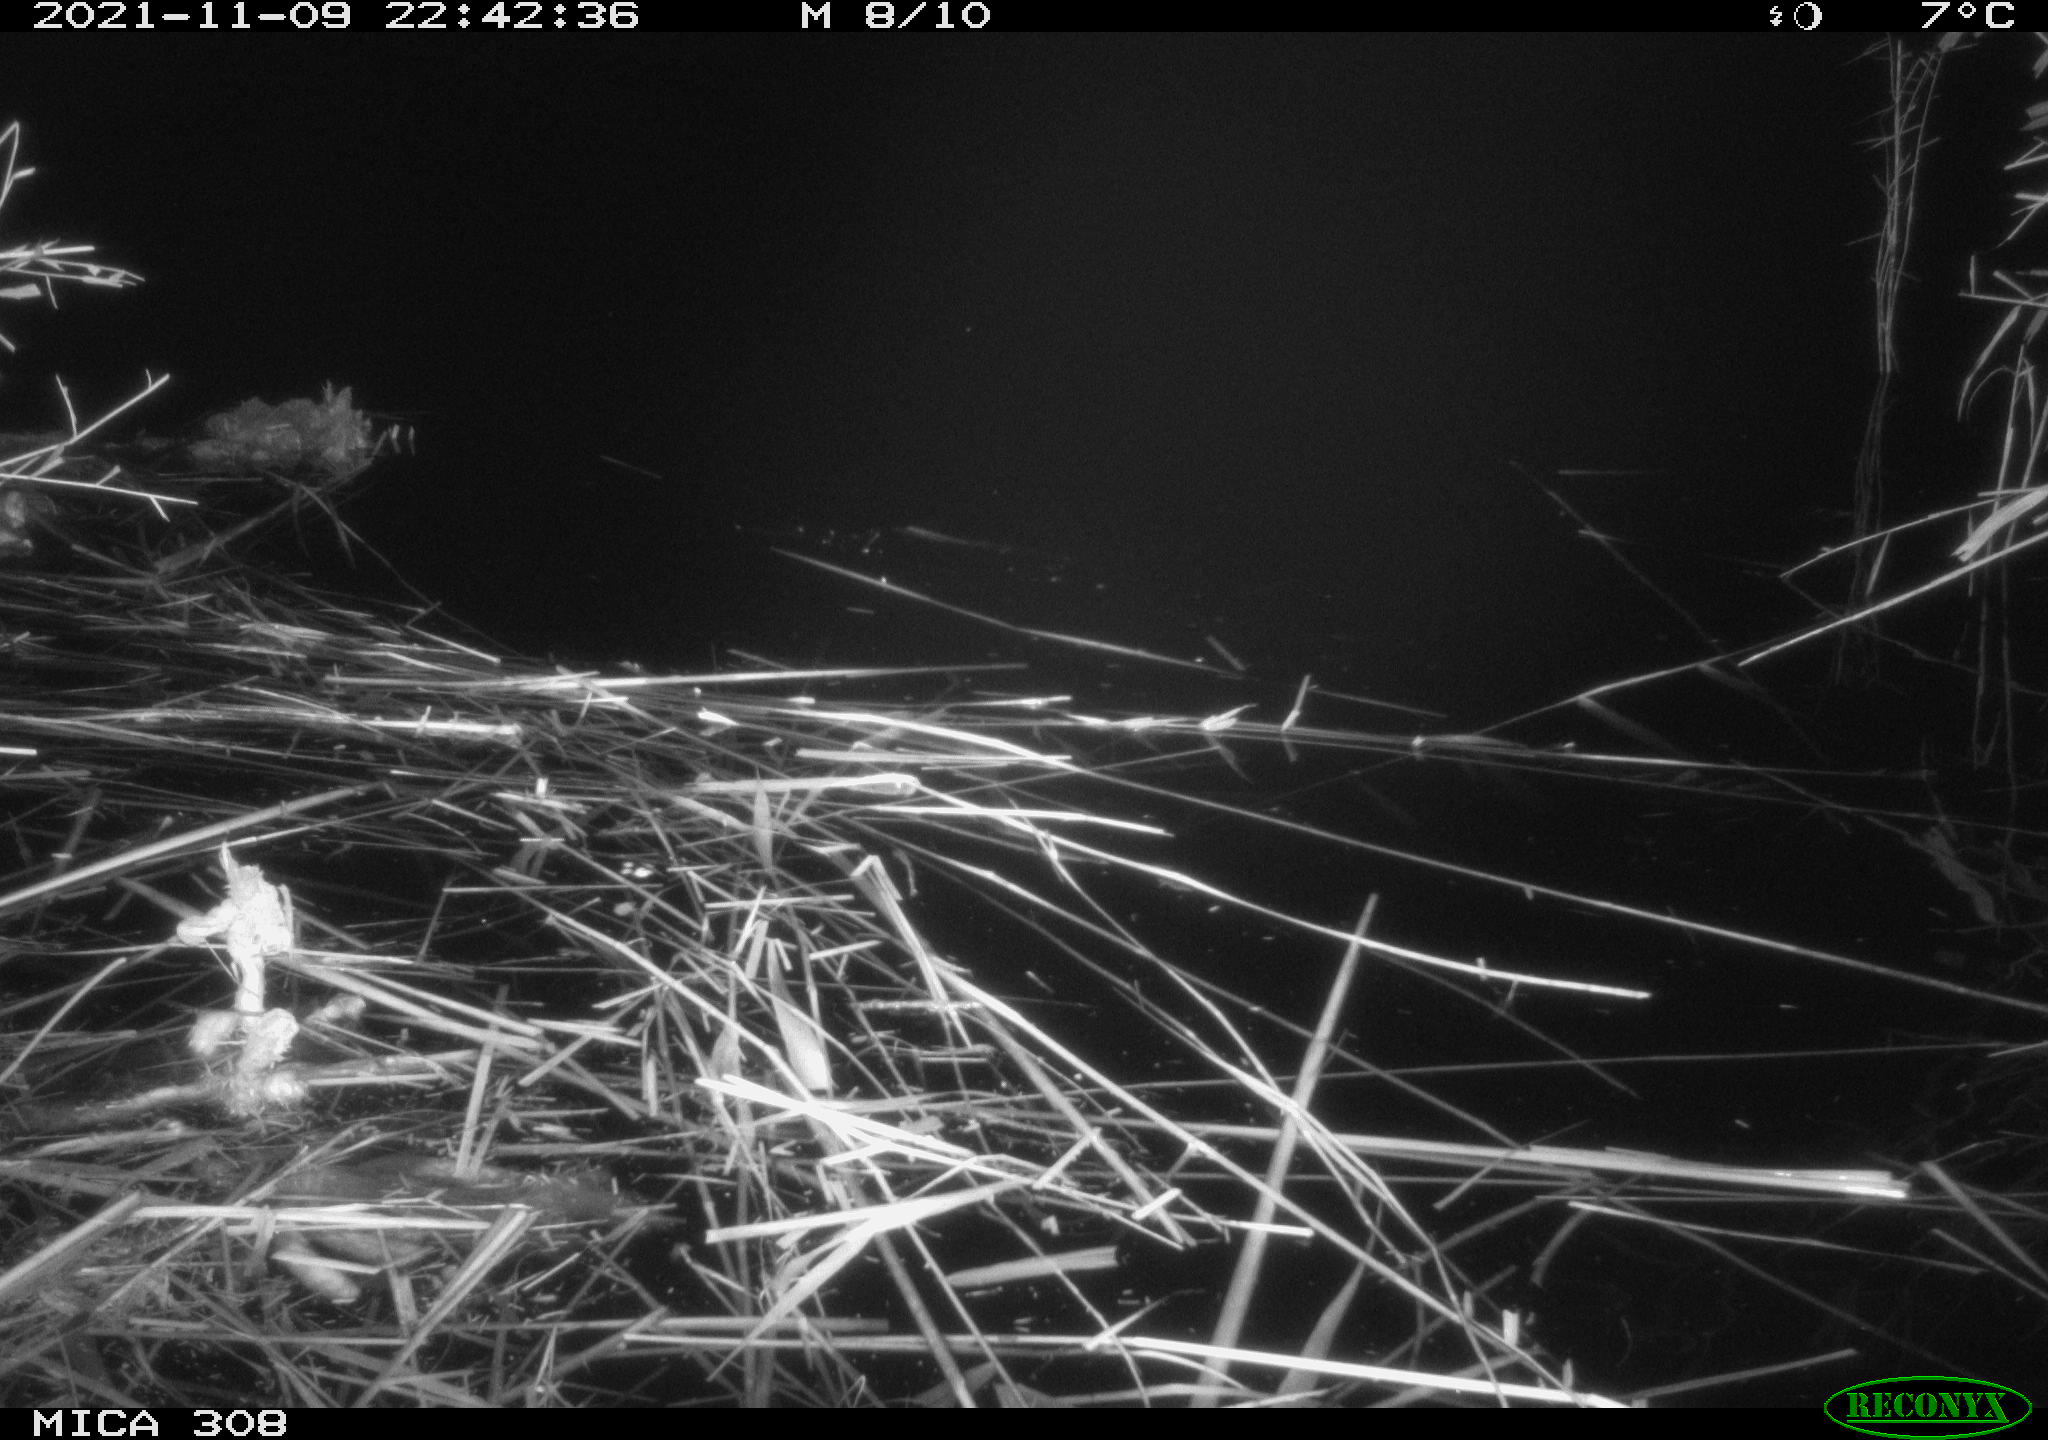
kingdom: Animalia
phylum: Chordata
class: Mammalia
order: Rodentia
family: Muridae
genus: Rattus
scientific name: Rattus norvegicus
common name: Brown rat
